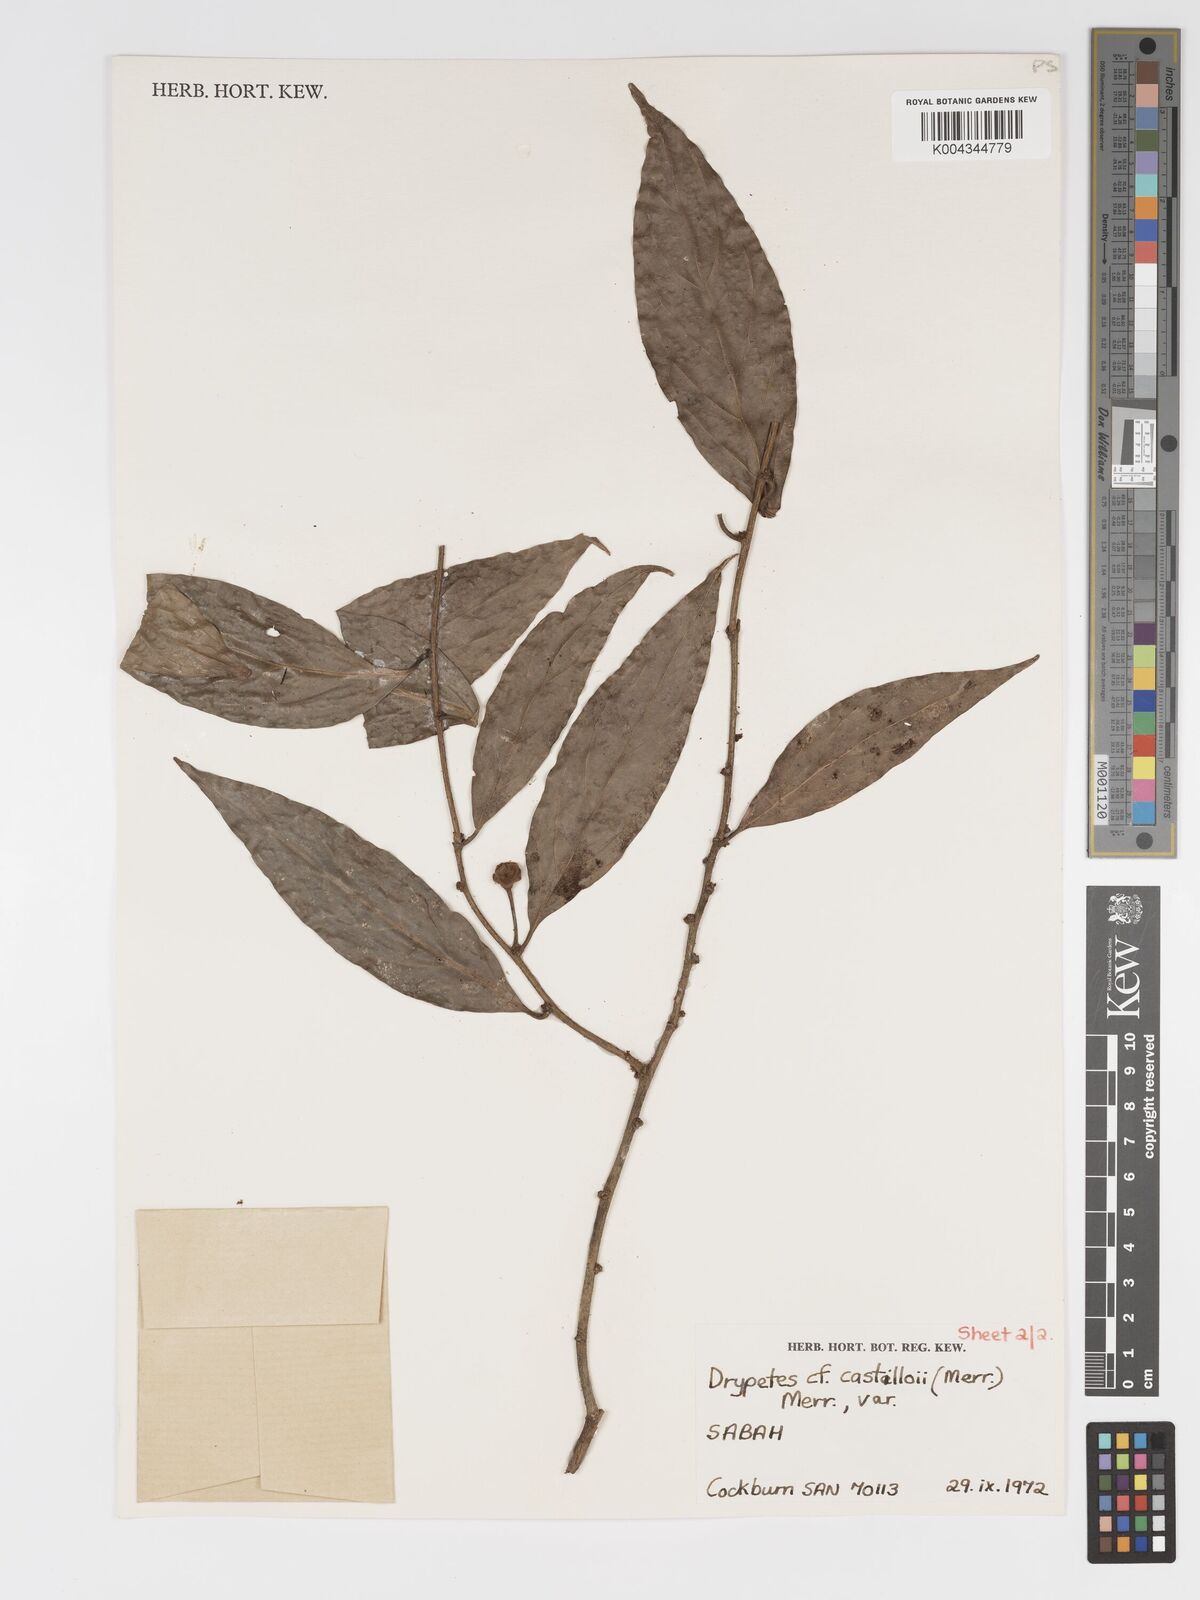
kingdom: Plantae
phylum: Tracheophyta
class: Magnoliopsida
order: Malpighiales
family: Putranjivaceae
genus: Drypetes
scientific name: Drypetes castilloi
